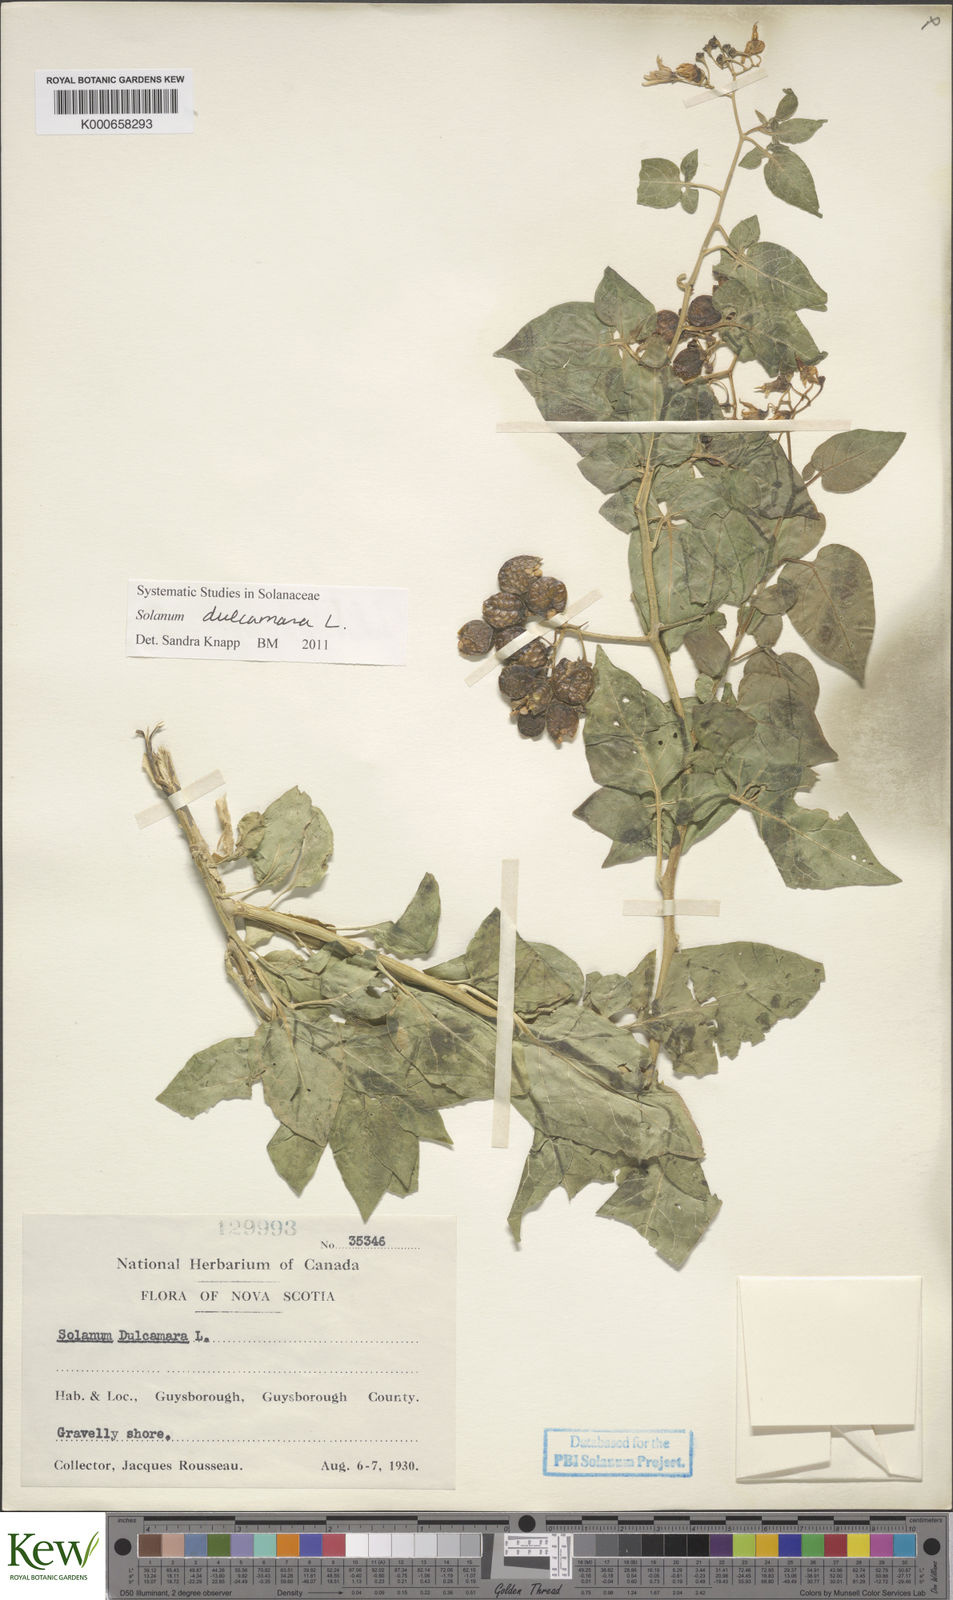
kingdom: Plantae
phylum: Tracheophyta
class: Magnoliopsida
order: Solanales
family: Solanaceae
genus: Solanum
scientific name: Solanum dulcamara
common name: Climbing nightshade
